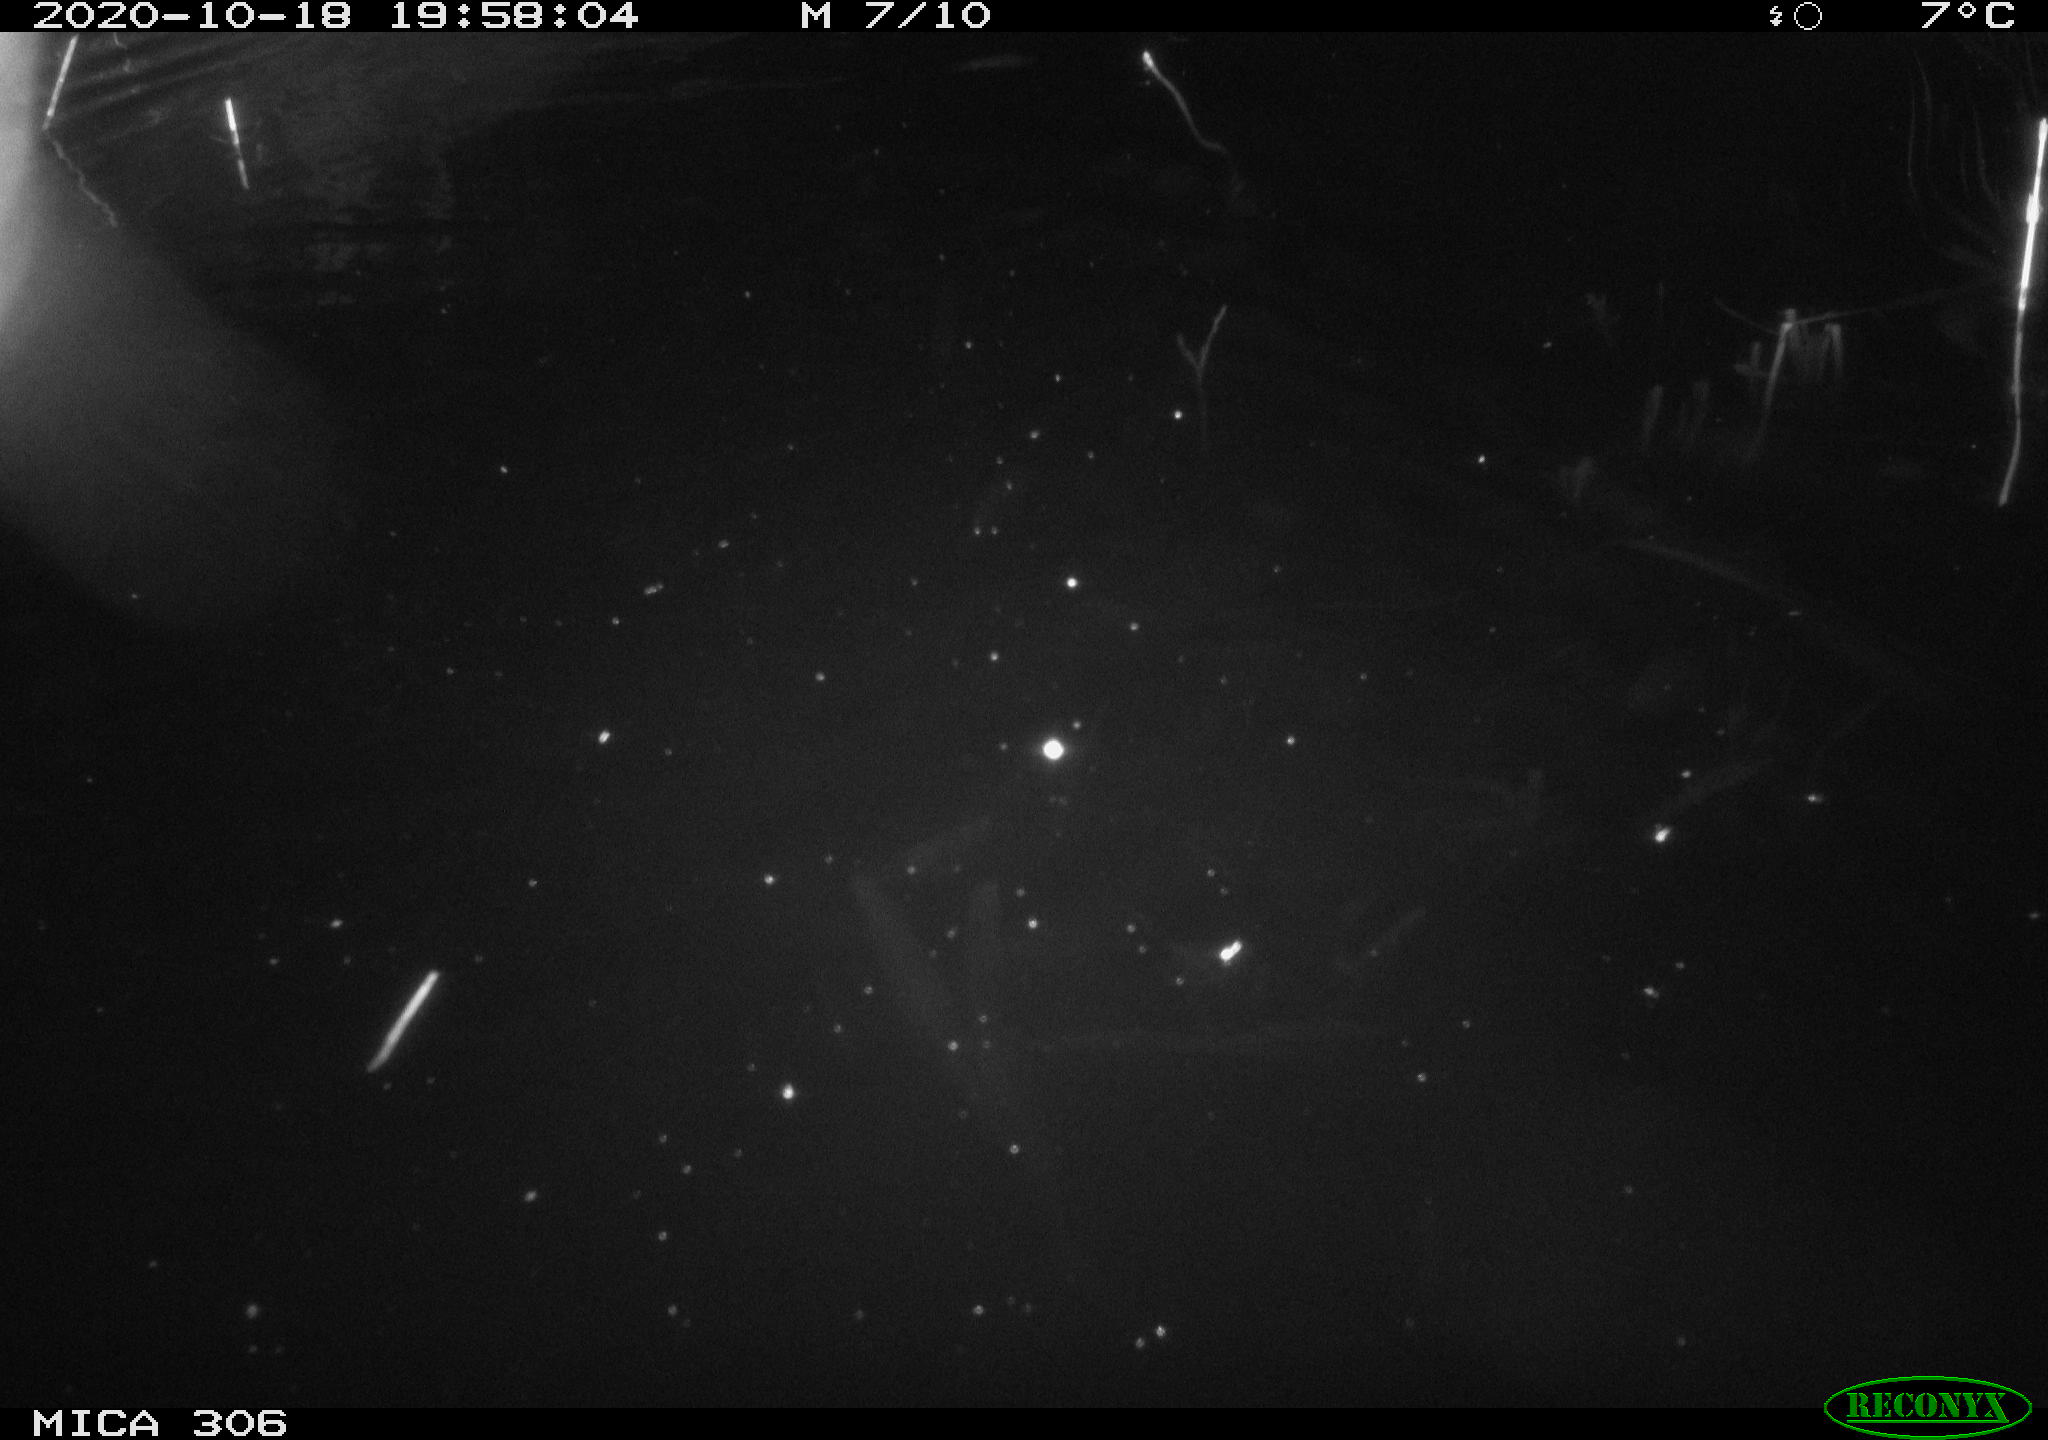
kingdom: Animalia
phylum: Chordata
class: Mammalia
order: Rodentia
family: Cricetidae
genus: Ondatra
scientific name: Ondatra zibethicus
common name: Muskrat
